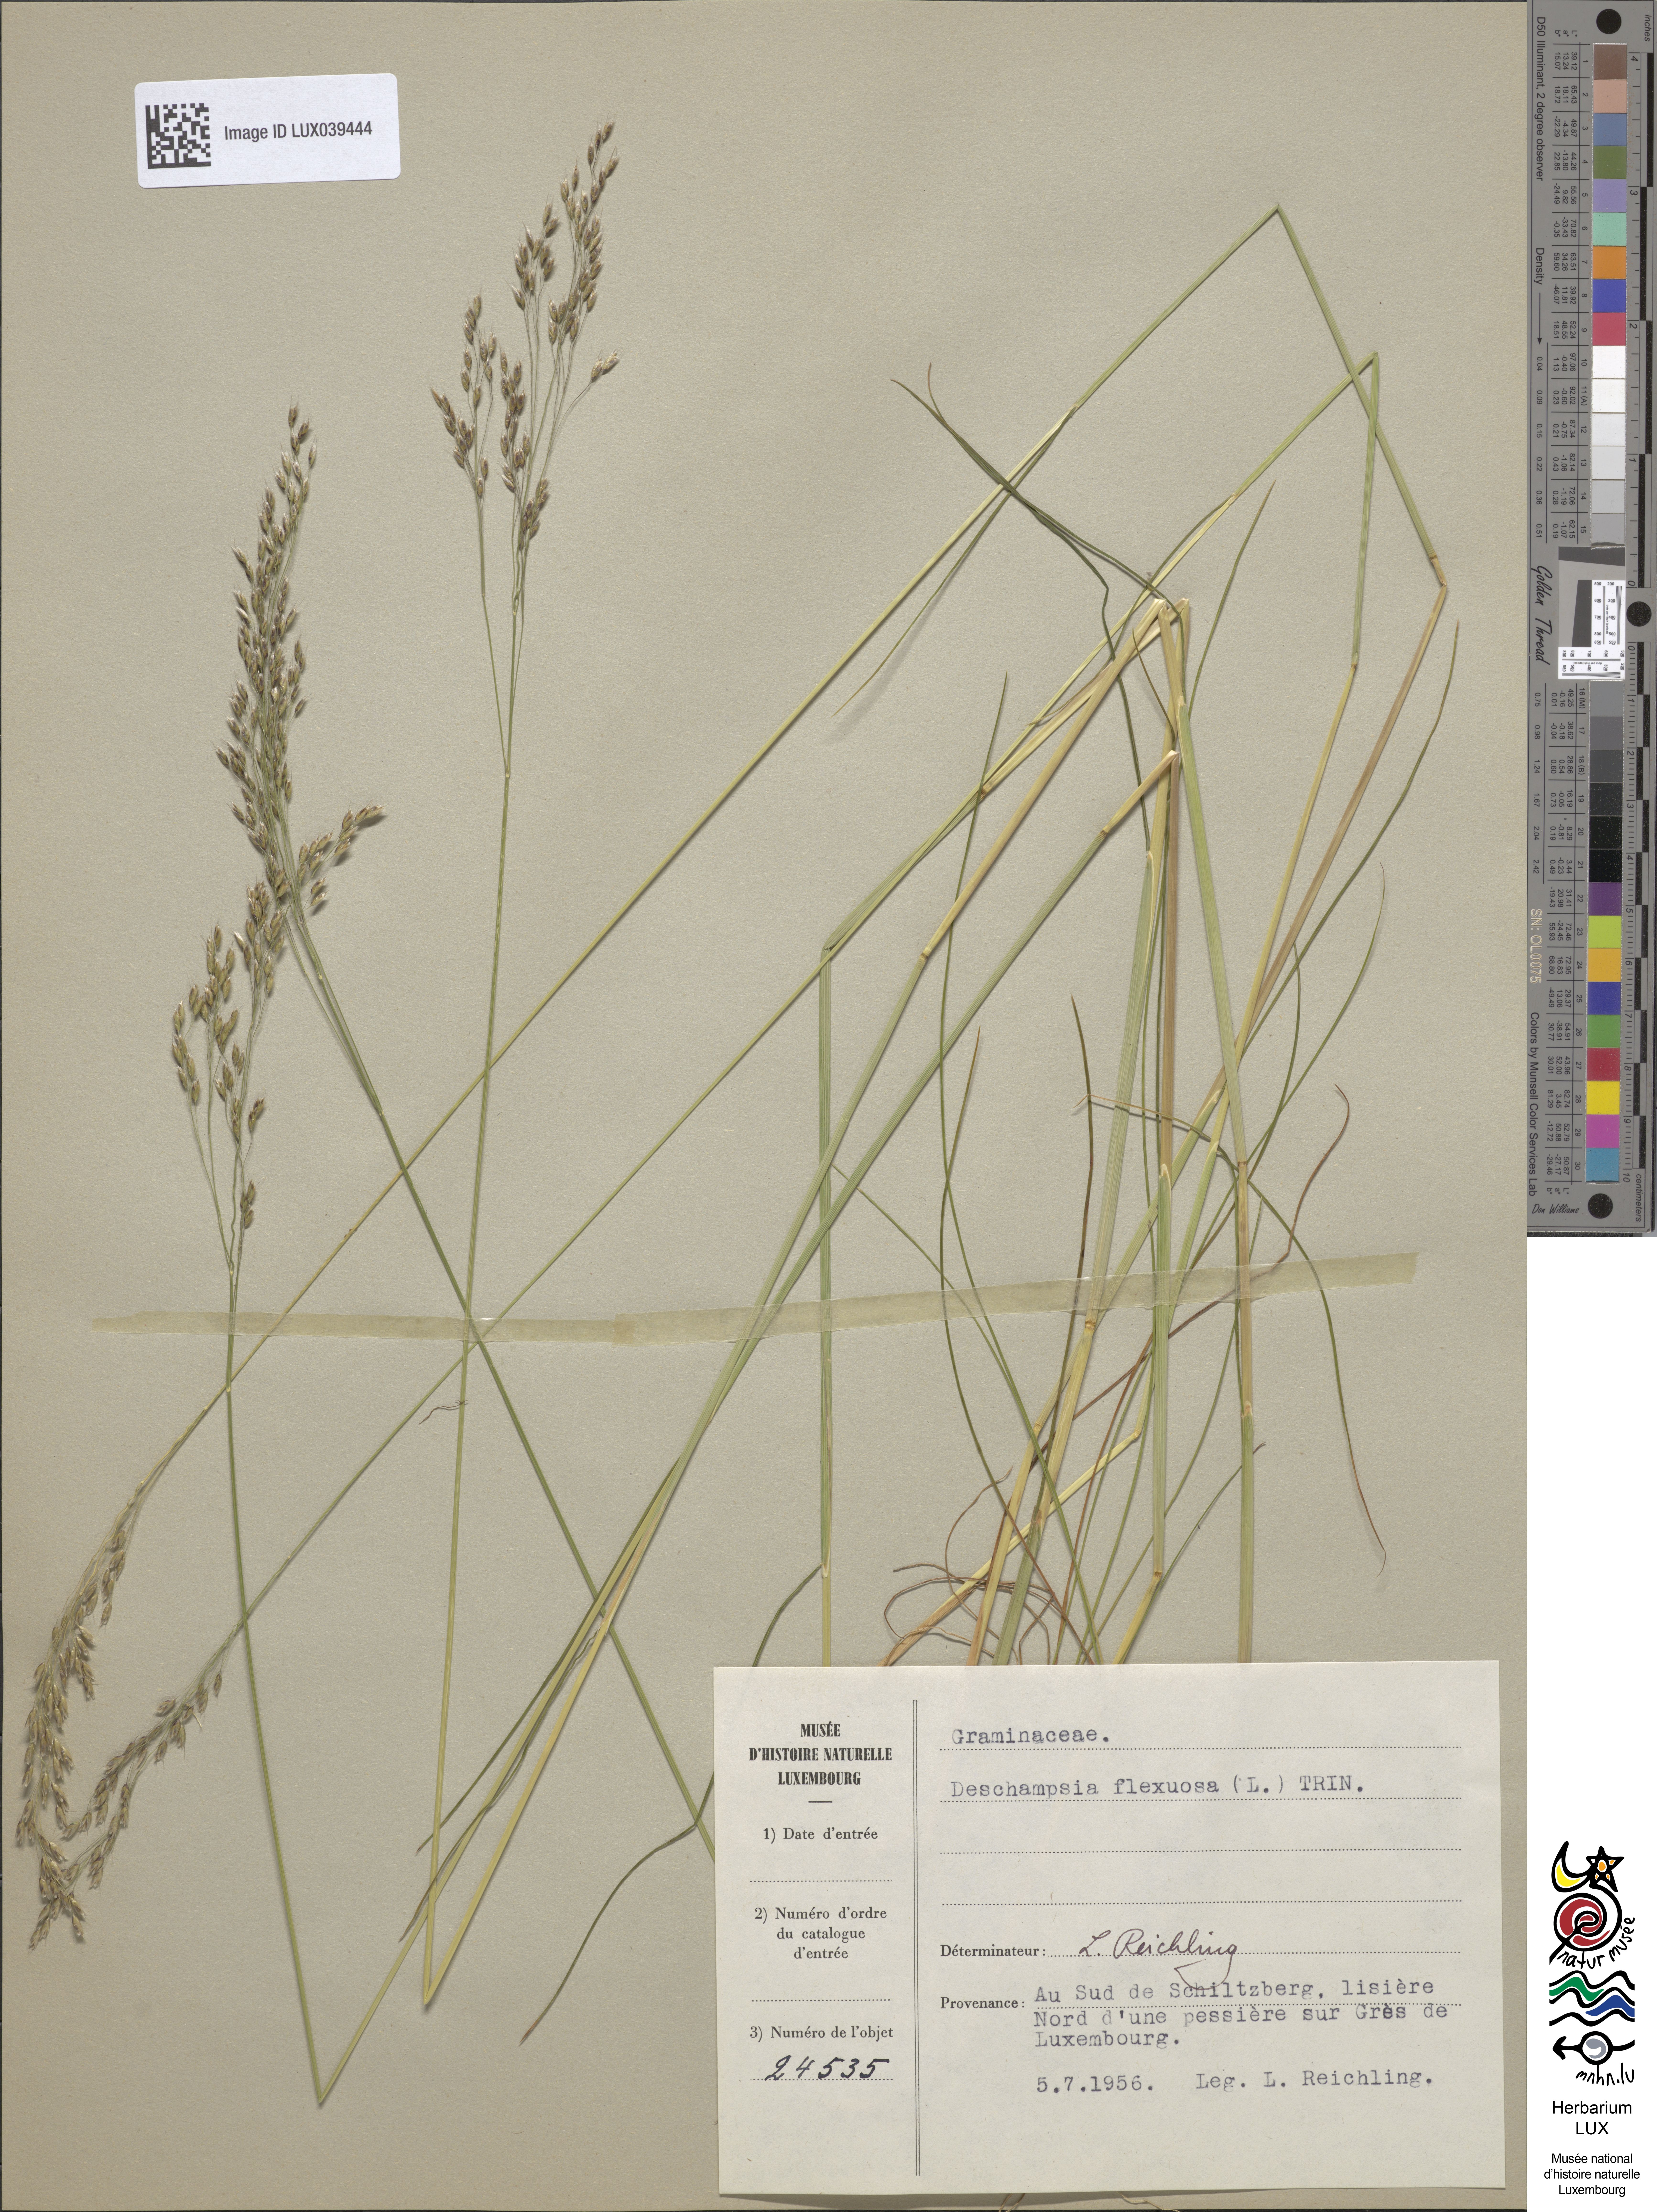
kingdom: Plantae
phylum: Tracheophyta
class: Liliopsida
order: Poales
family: Poaceae
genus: Avenella
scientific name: Avenella flexuosa
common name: Wavy hairgrass
